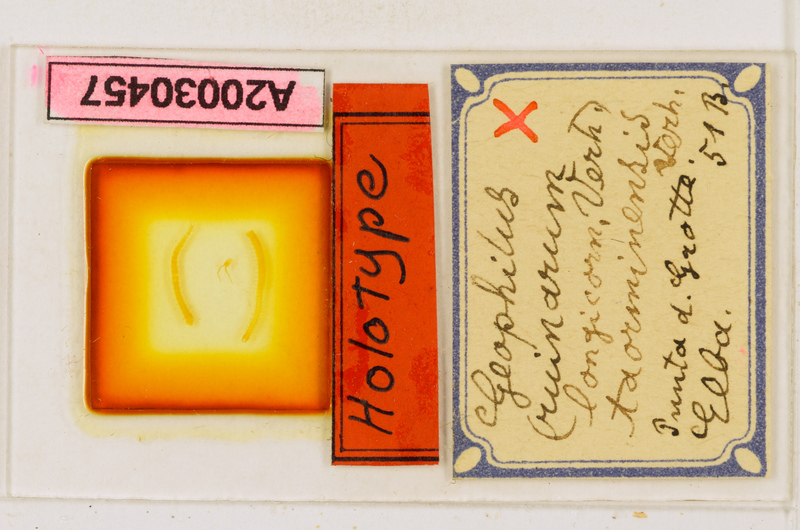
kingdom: Animalia
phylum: Arthropoda
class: Chilopoda
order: Geophilomorpha
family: Geophilidae
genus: Geophilus
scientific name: Geophilus osquidatum
